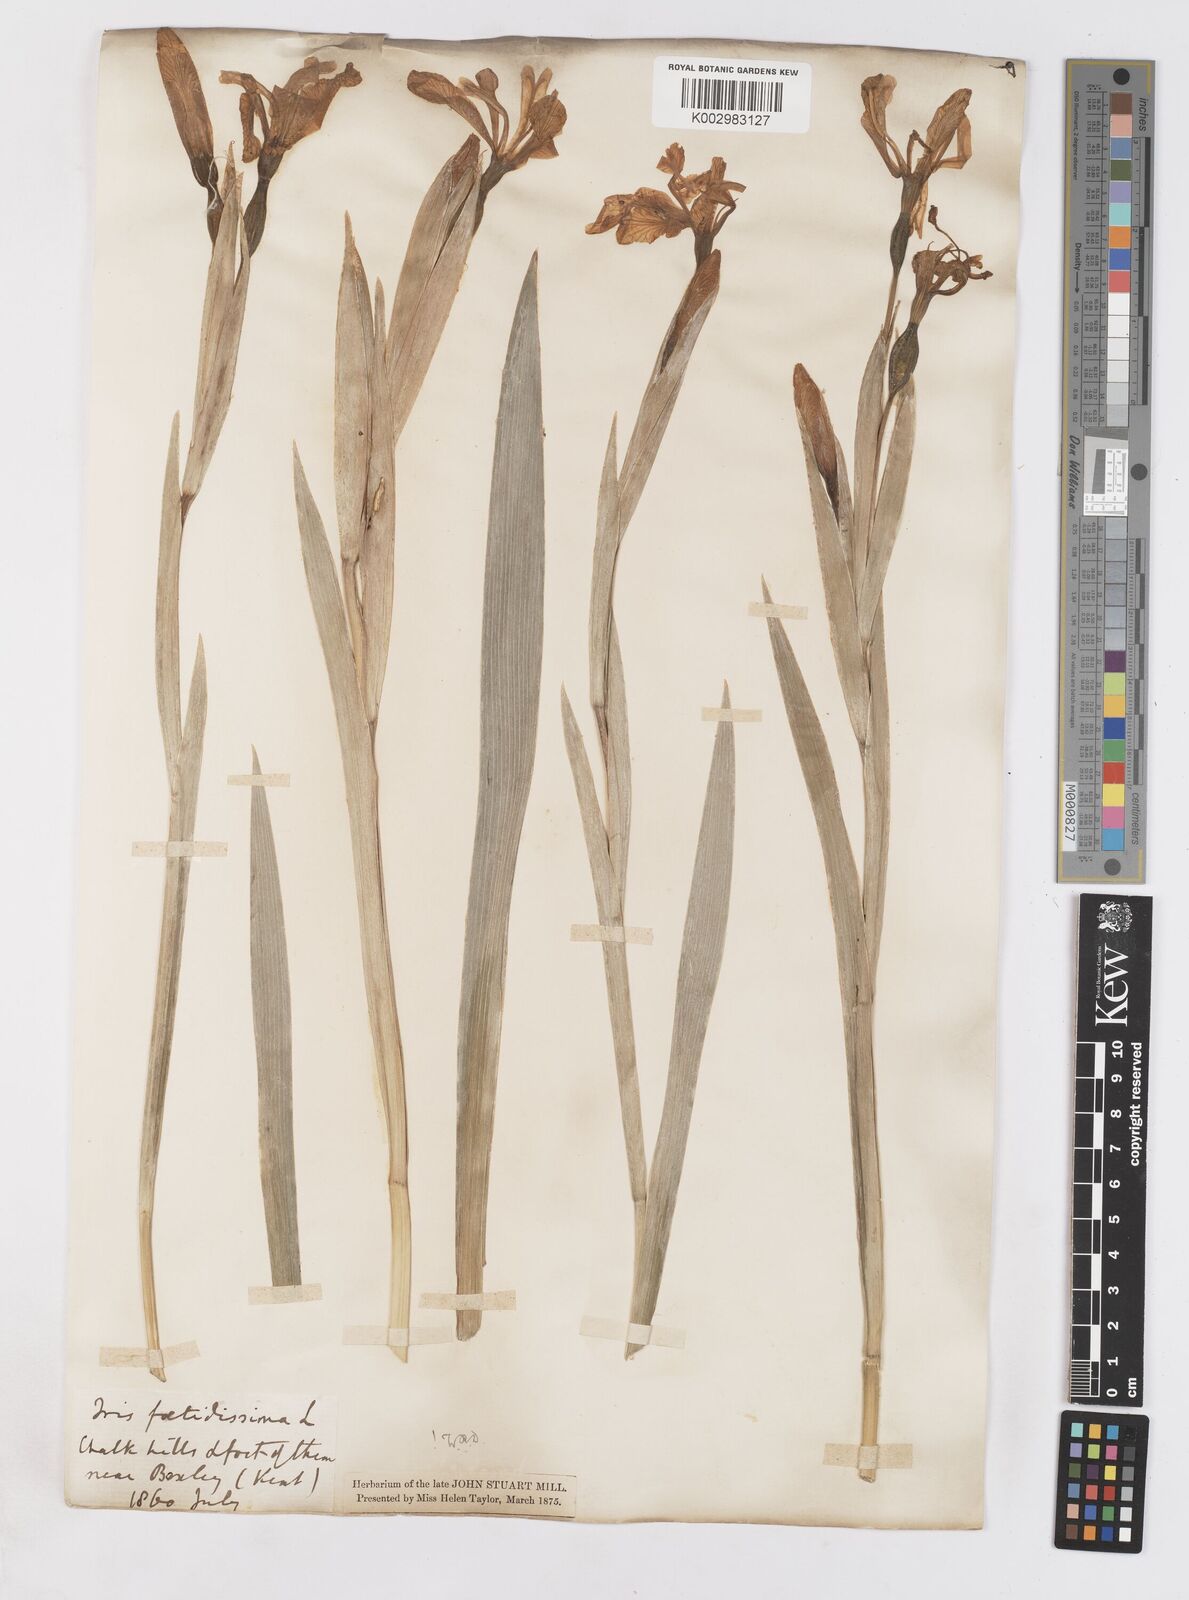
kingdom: Plantae
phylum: Tracheophyta
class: Liliopsida
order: Asparagales
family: Iridaceae
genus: Iris
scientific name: Iris foetidissima
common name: Stinking iris
